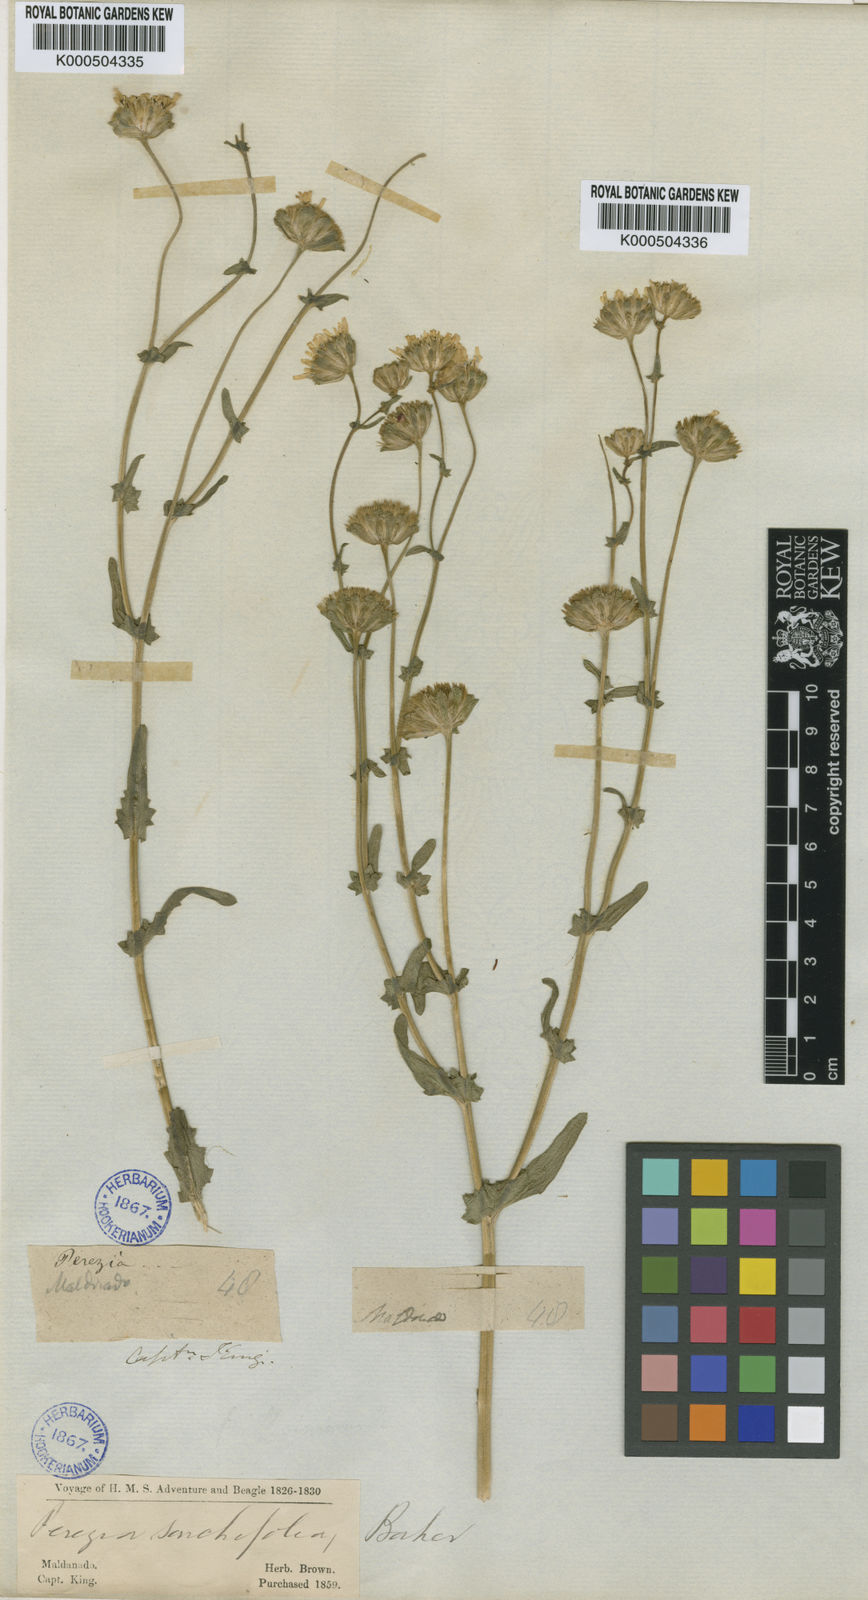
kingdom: Plantae
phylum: Tracheophyta
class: Magnoliopsida
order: Asterales
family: Asteraceae
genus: Perezia
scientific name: Perezia multiflora
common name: Perezia
